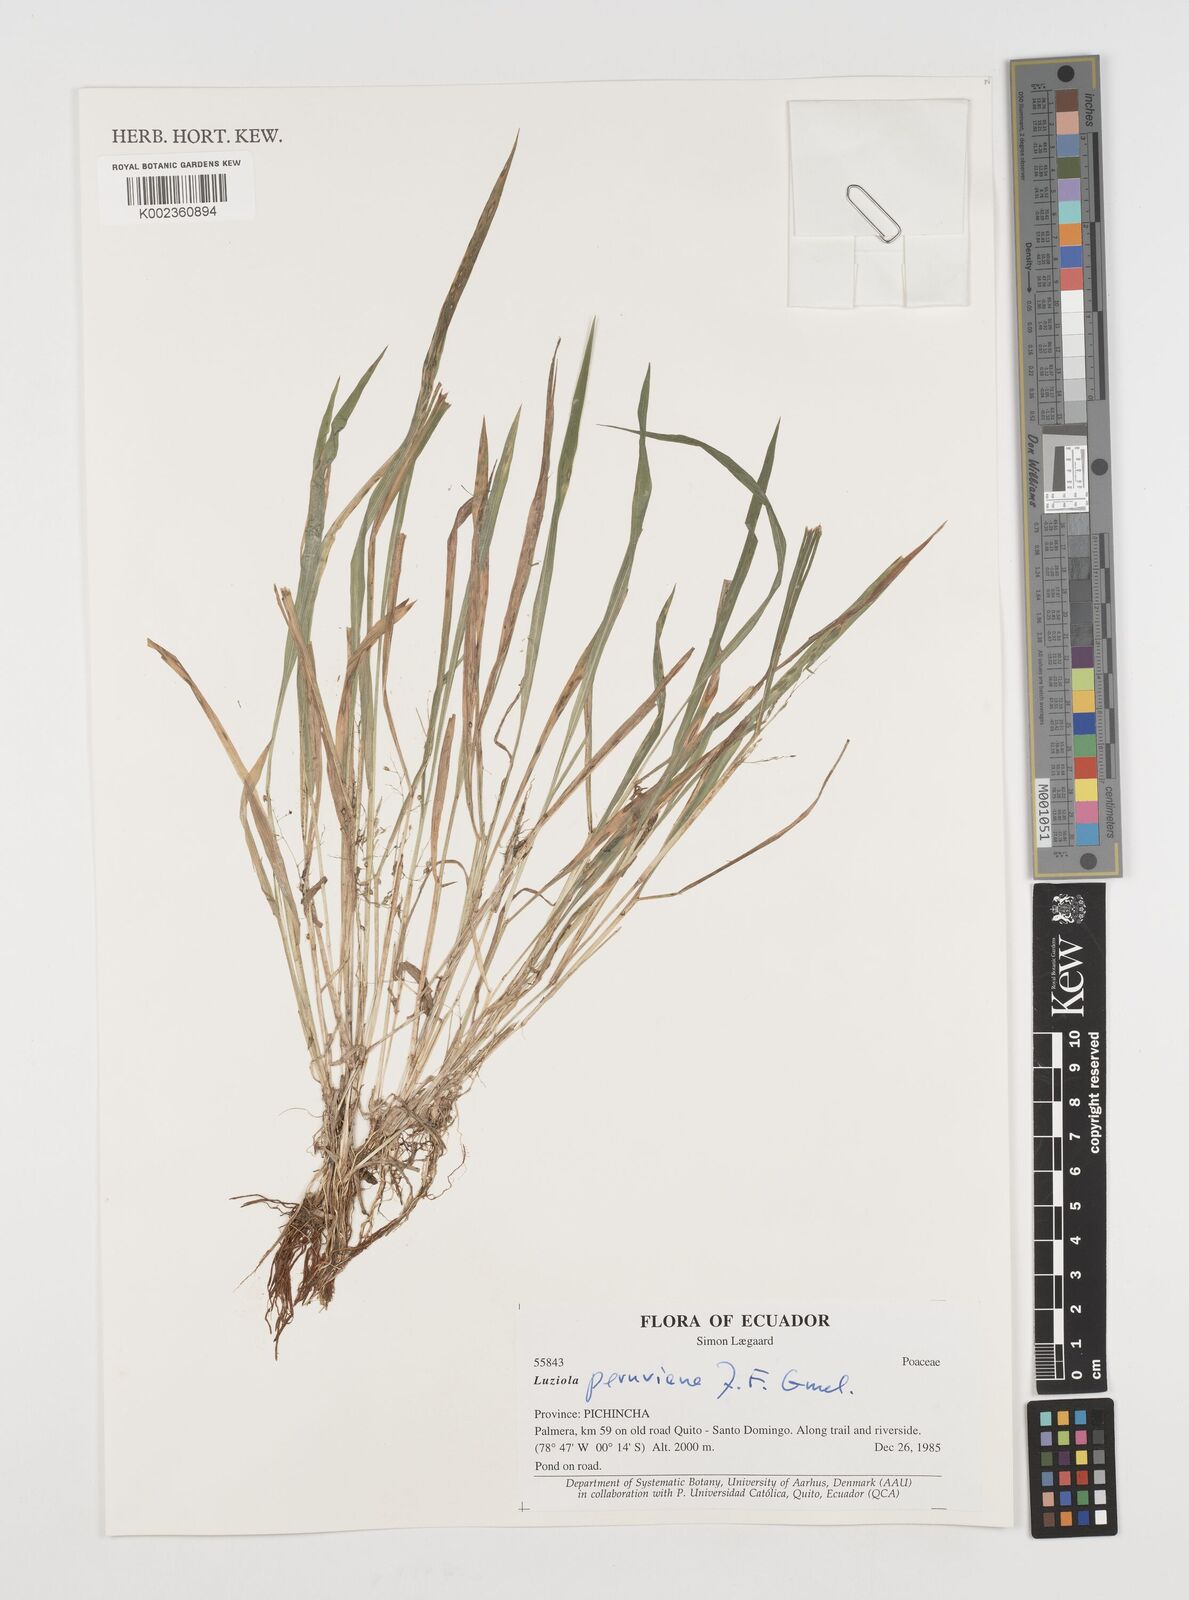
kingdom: Plantae
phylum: Tracheophyta
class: Liliopsida
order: Poales
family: Poaceae
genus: Luziola
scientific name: Luziola peruviana
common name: Peruvian watergrass
